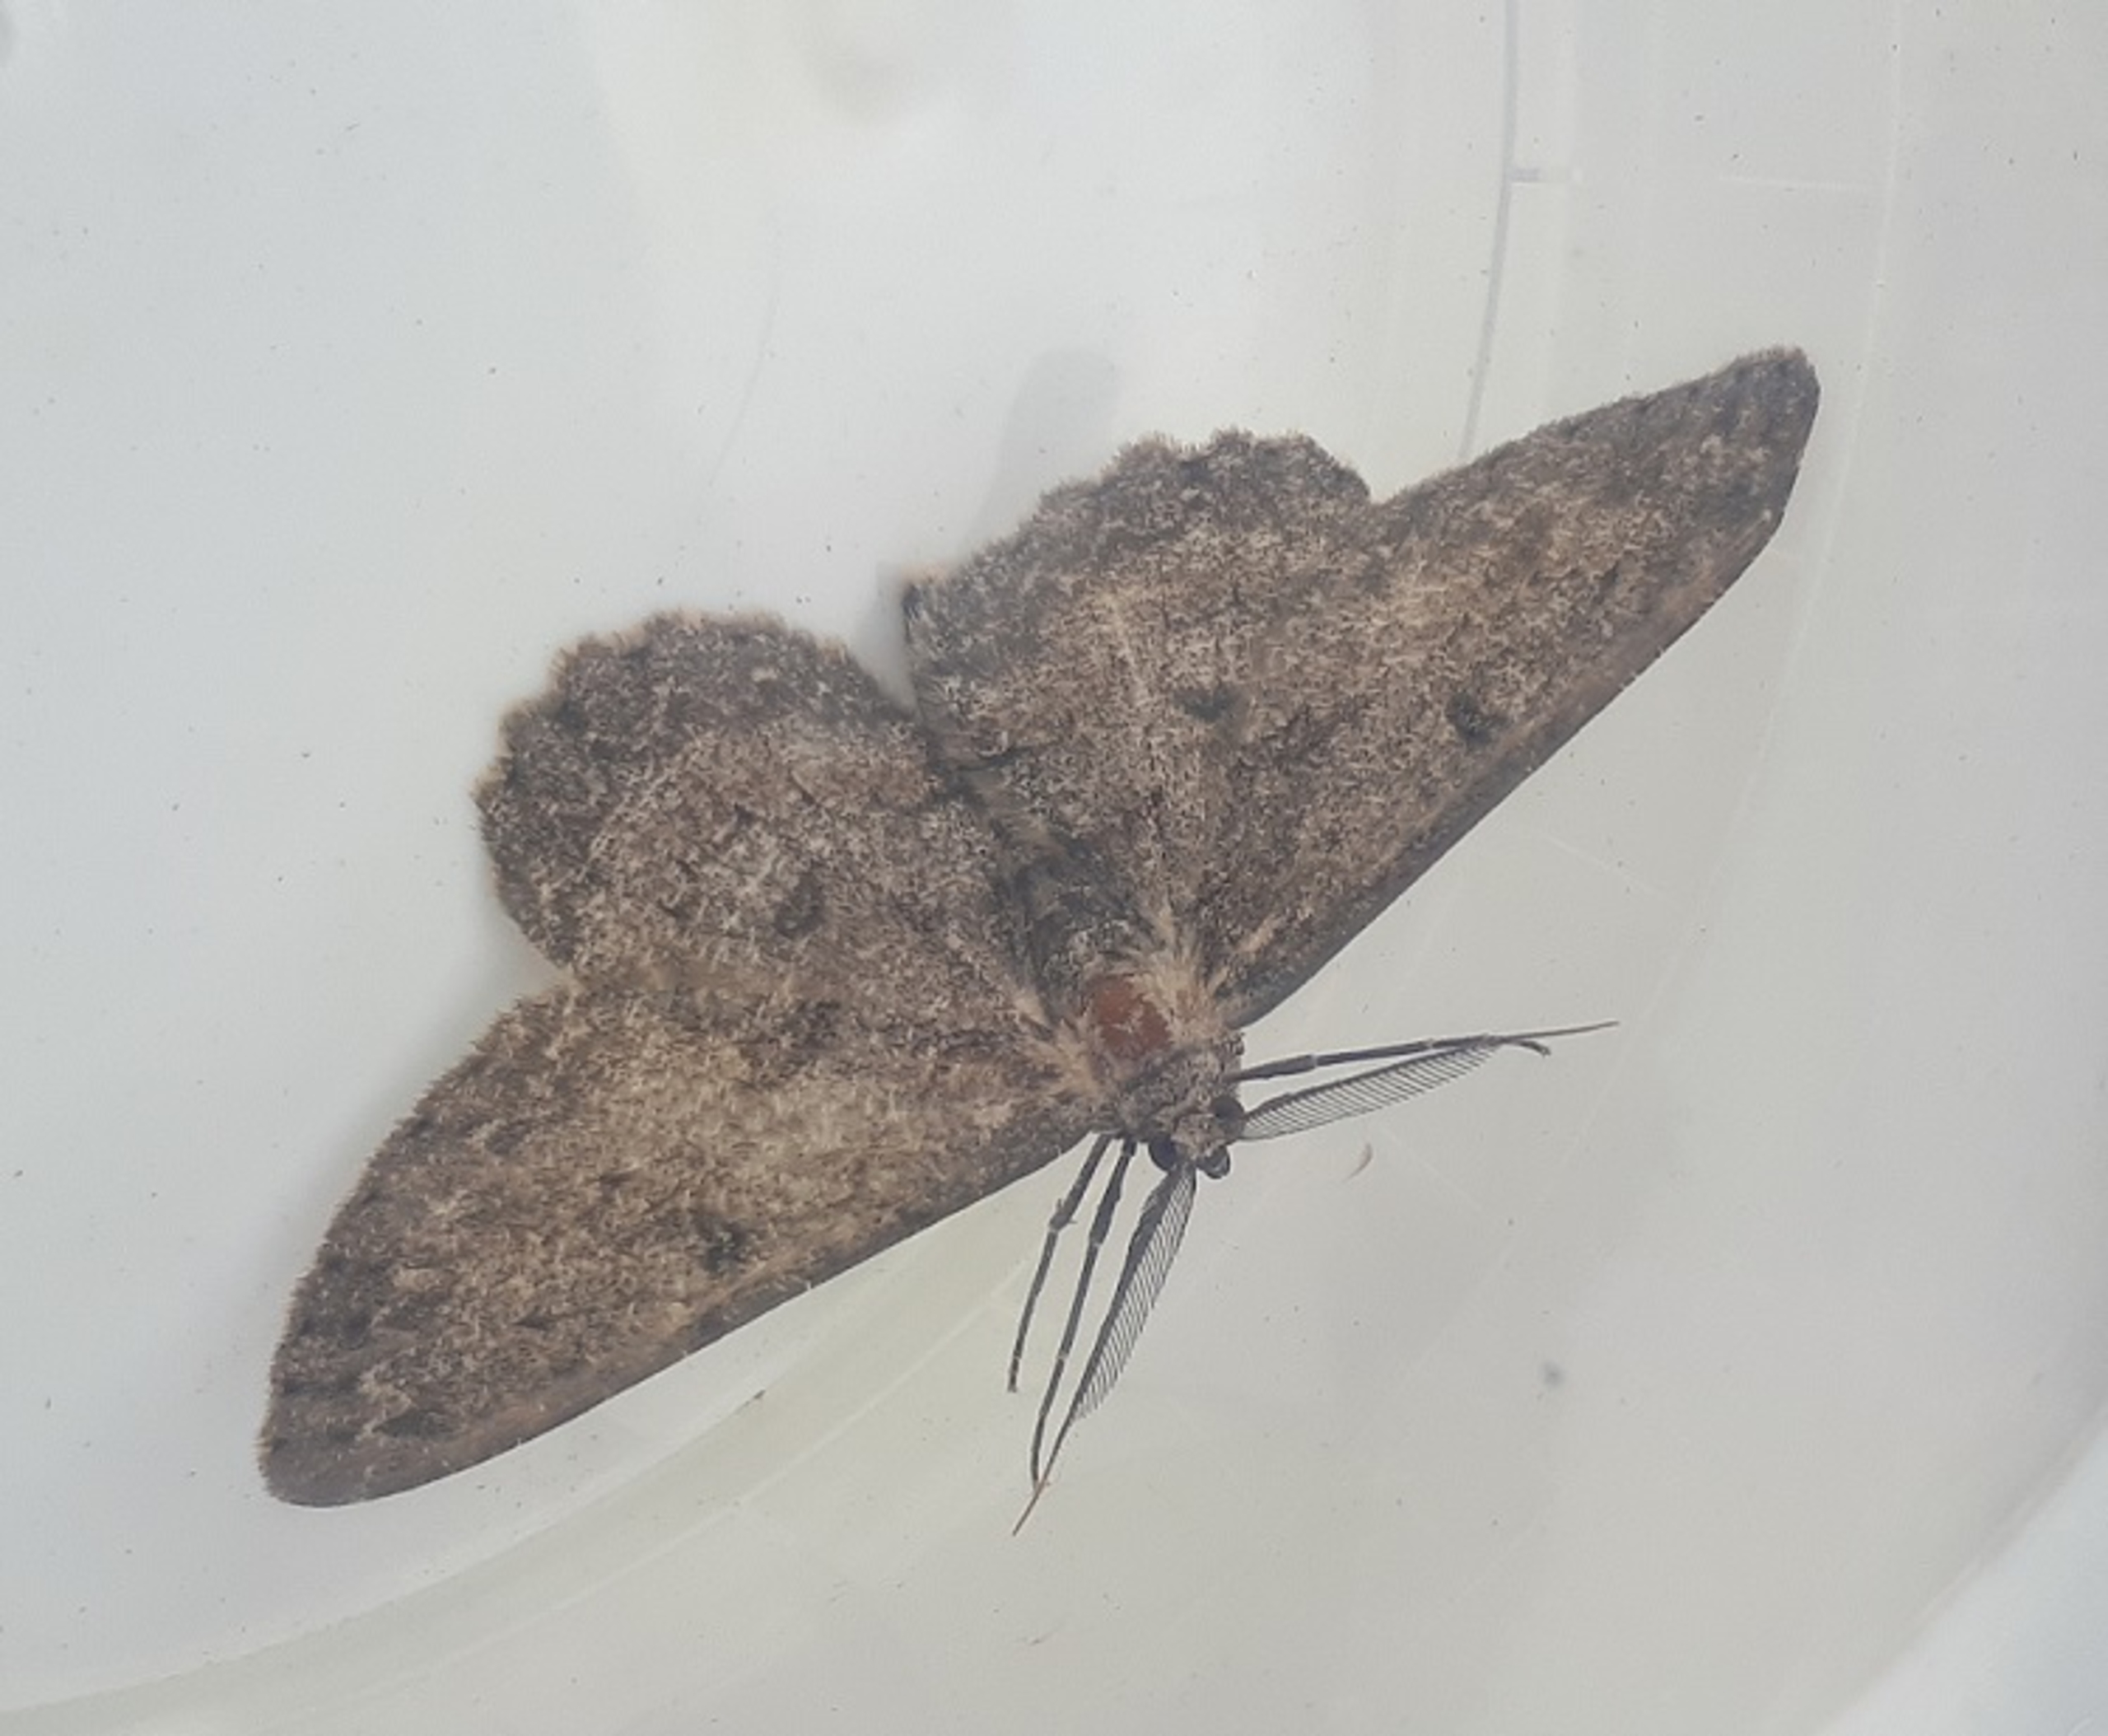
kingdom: Animalia
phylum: Arthropoda
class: Insecta
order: Lepidoptera
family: Geometridae
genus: Hypomecis
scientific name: Hypomecis punctinalis
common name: Grå egemåler
